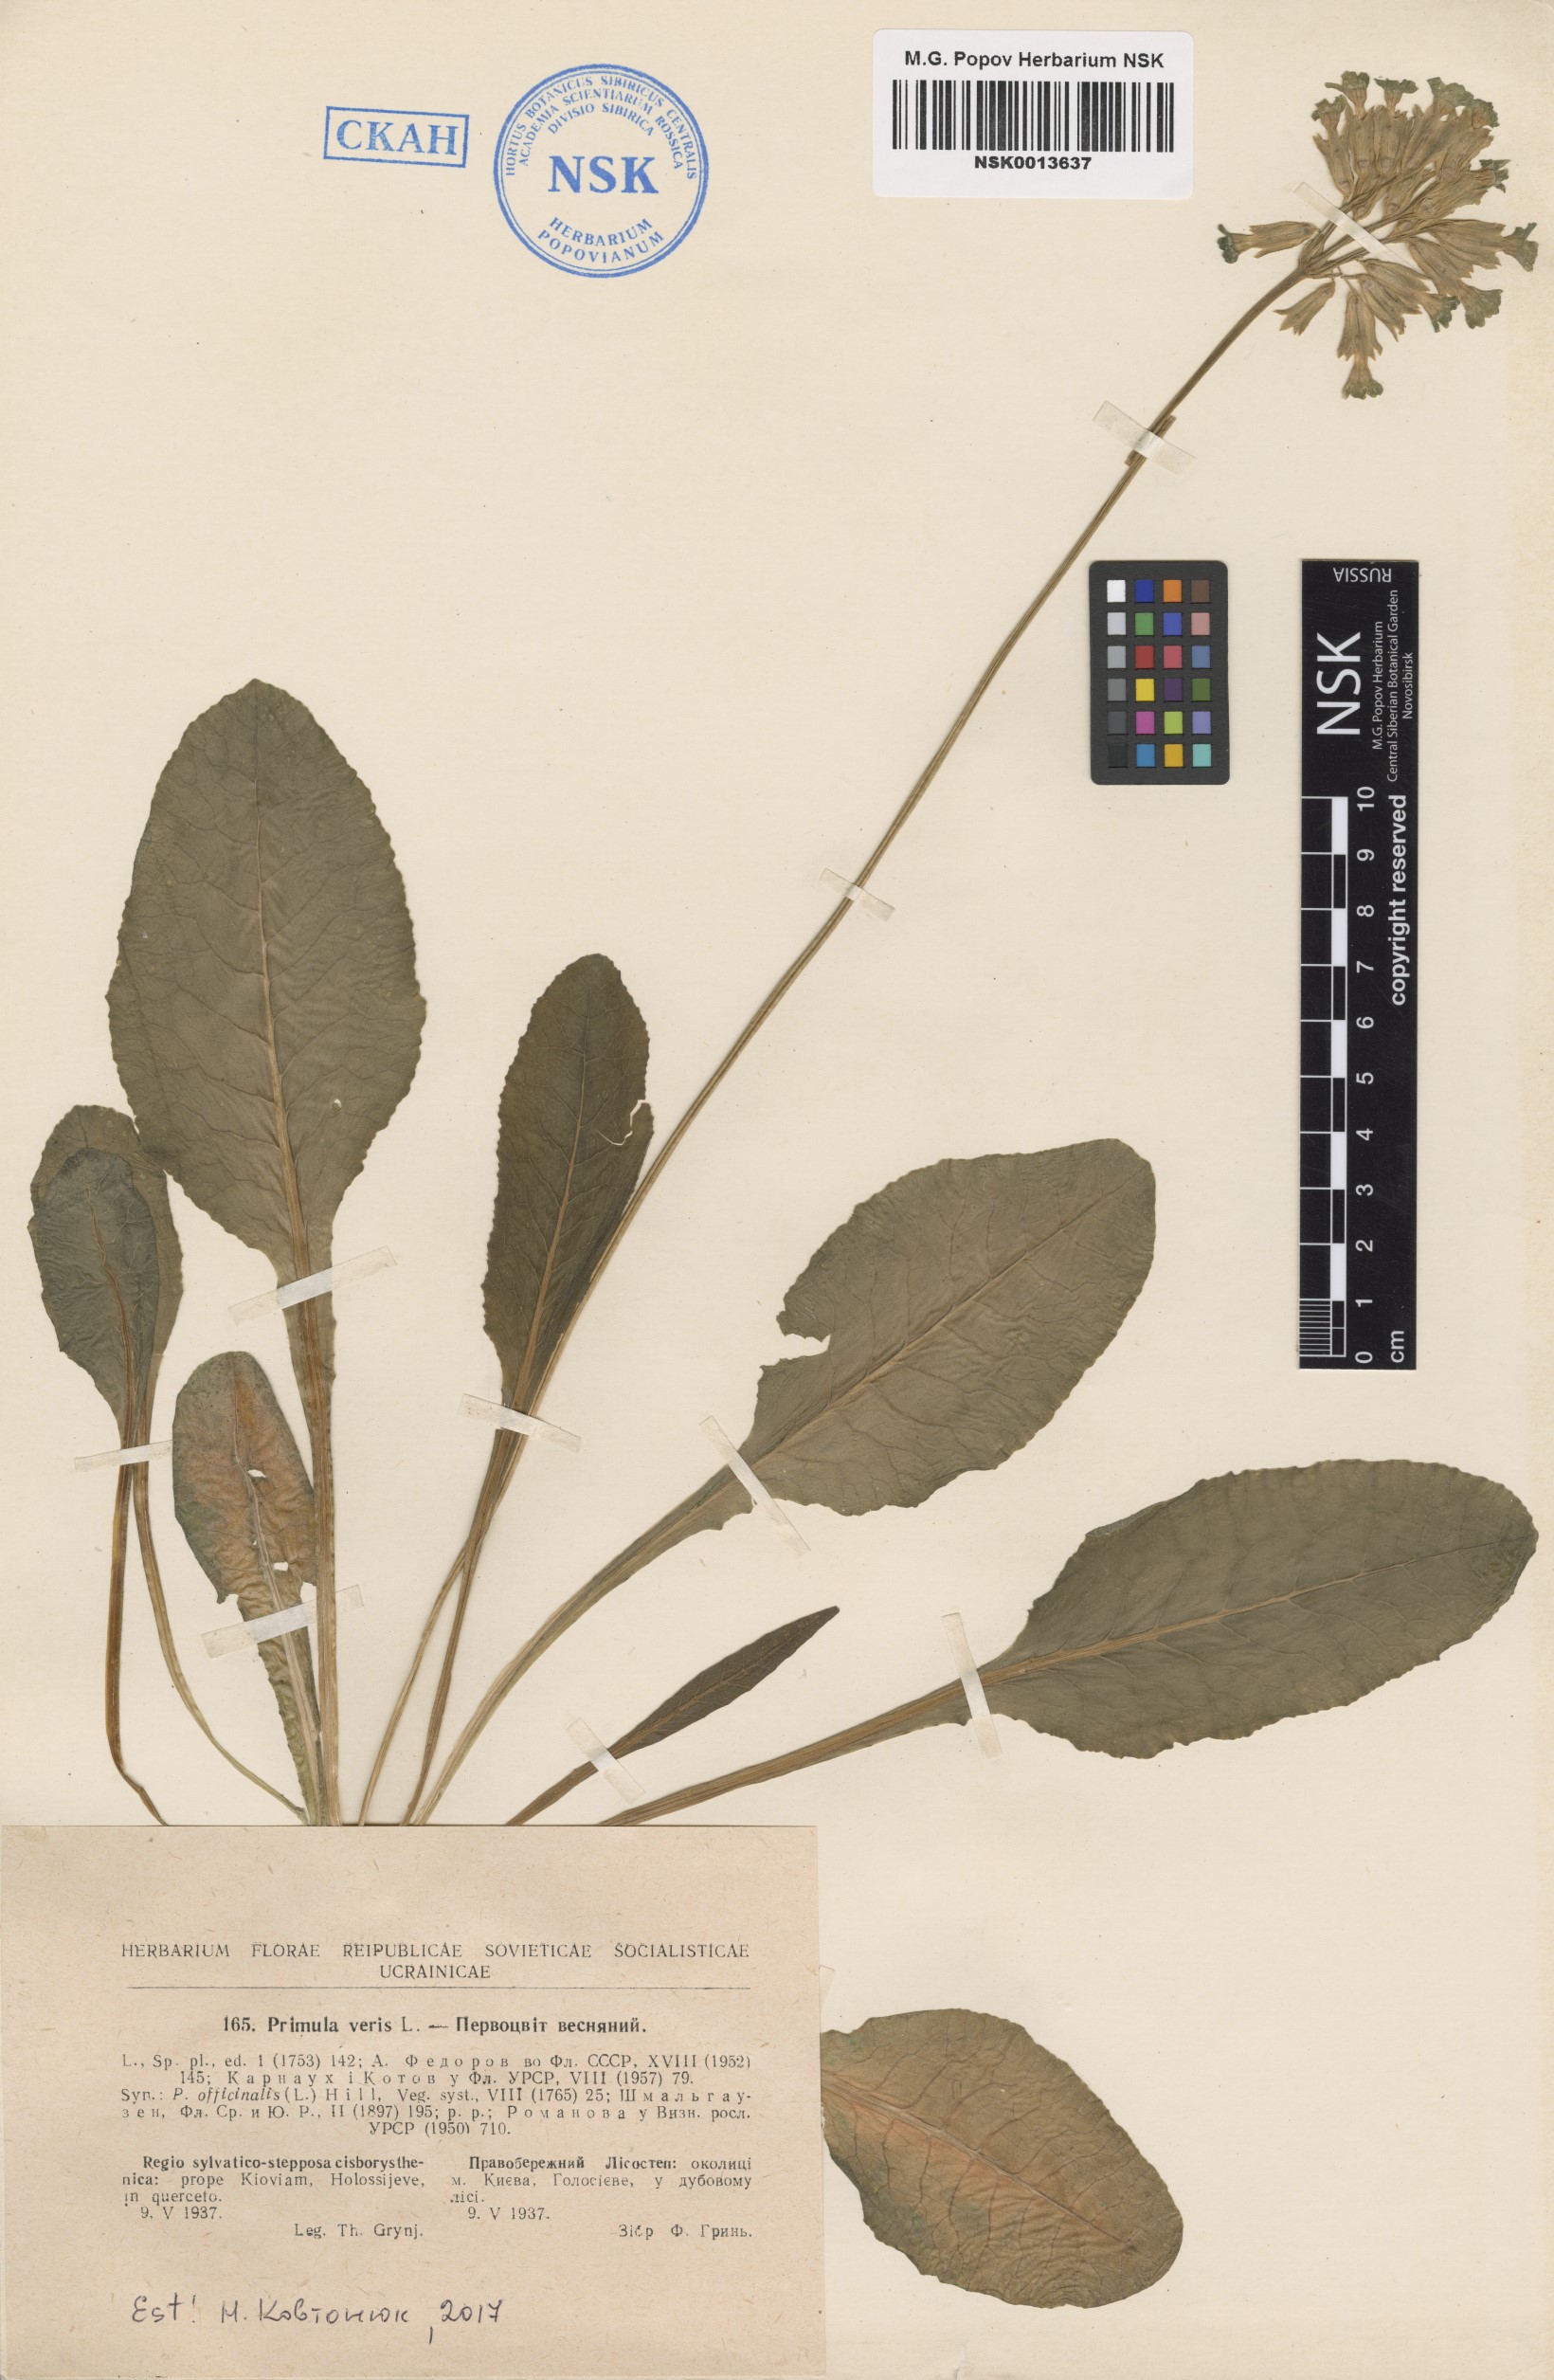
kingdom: Plantae
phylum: Tracheophyta
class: Magnoliopsida
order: Ericales
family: Primulaceae
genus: Primula
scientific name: Primula veris
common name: Cowslip
